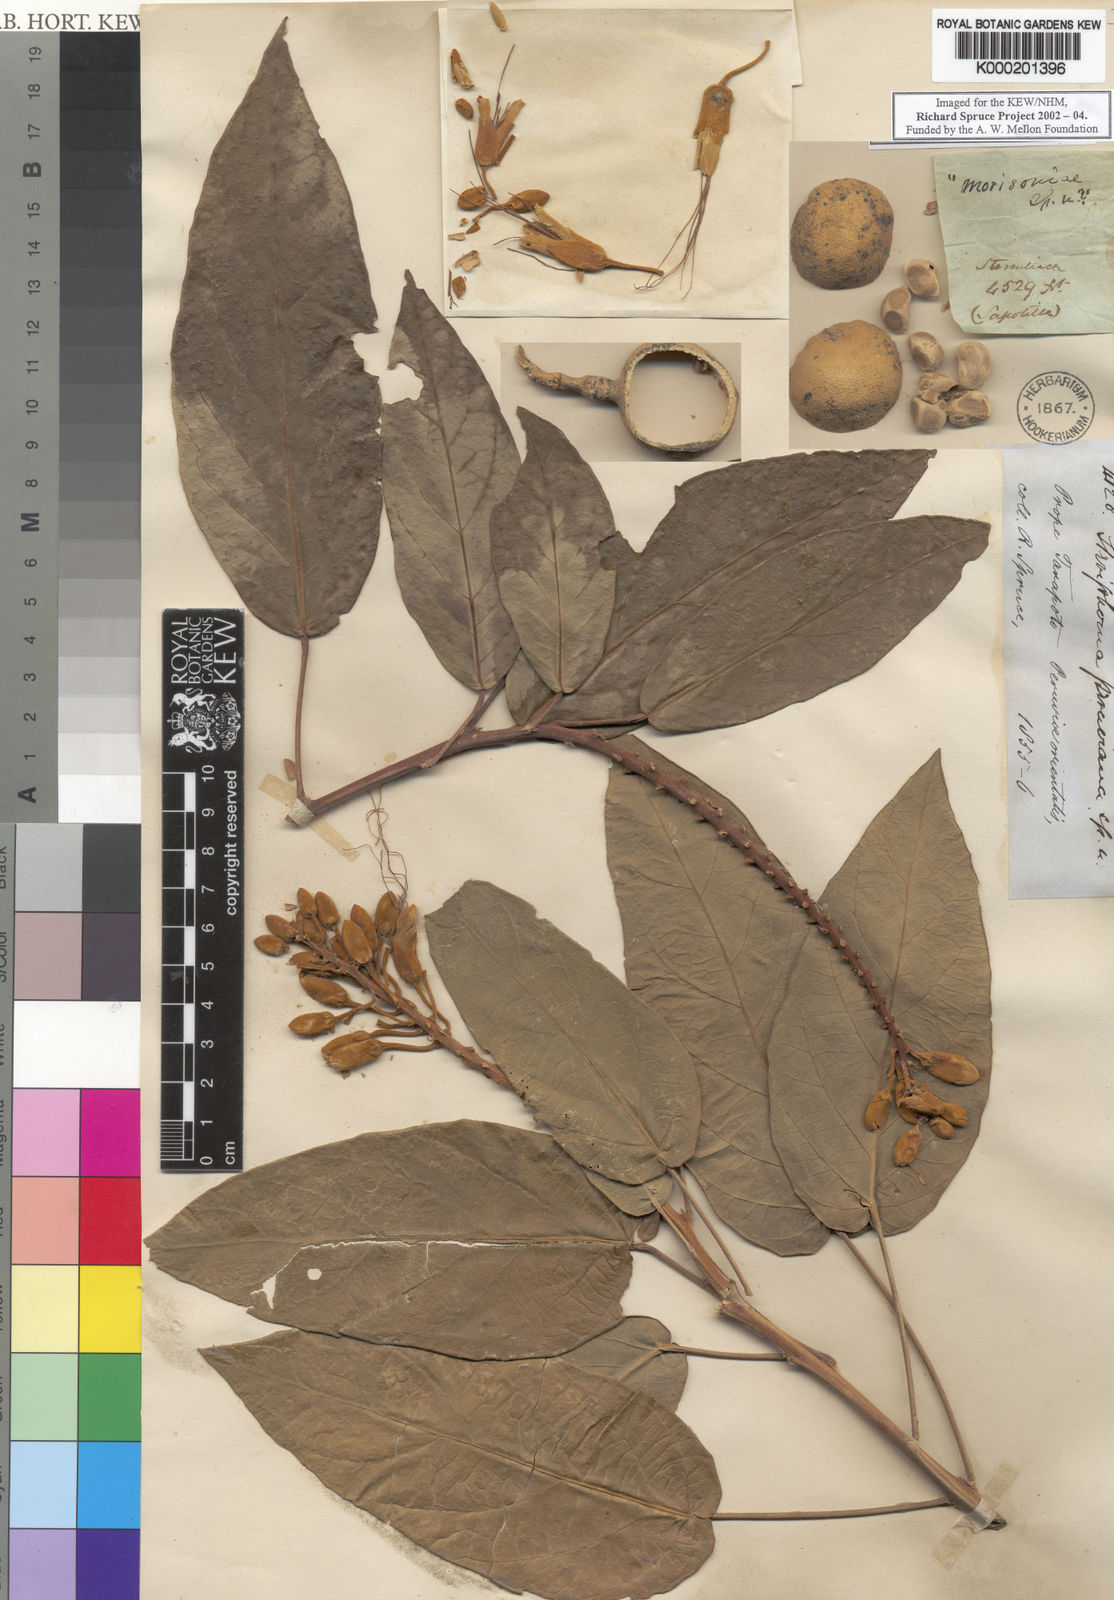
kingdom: Plantae
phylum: Tracheophyta
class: Magnoliopsida
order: Brassicales
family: Capparaceae
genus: Steriphoma
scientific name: Steriphoma peruvianum
